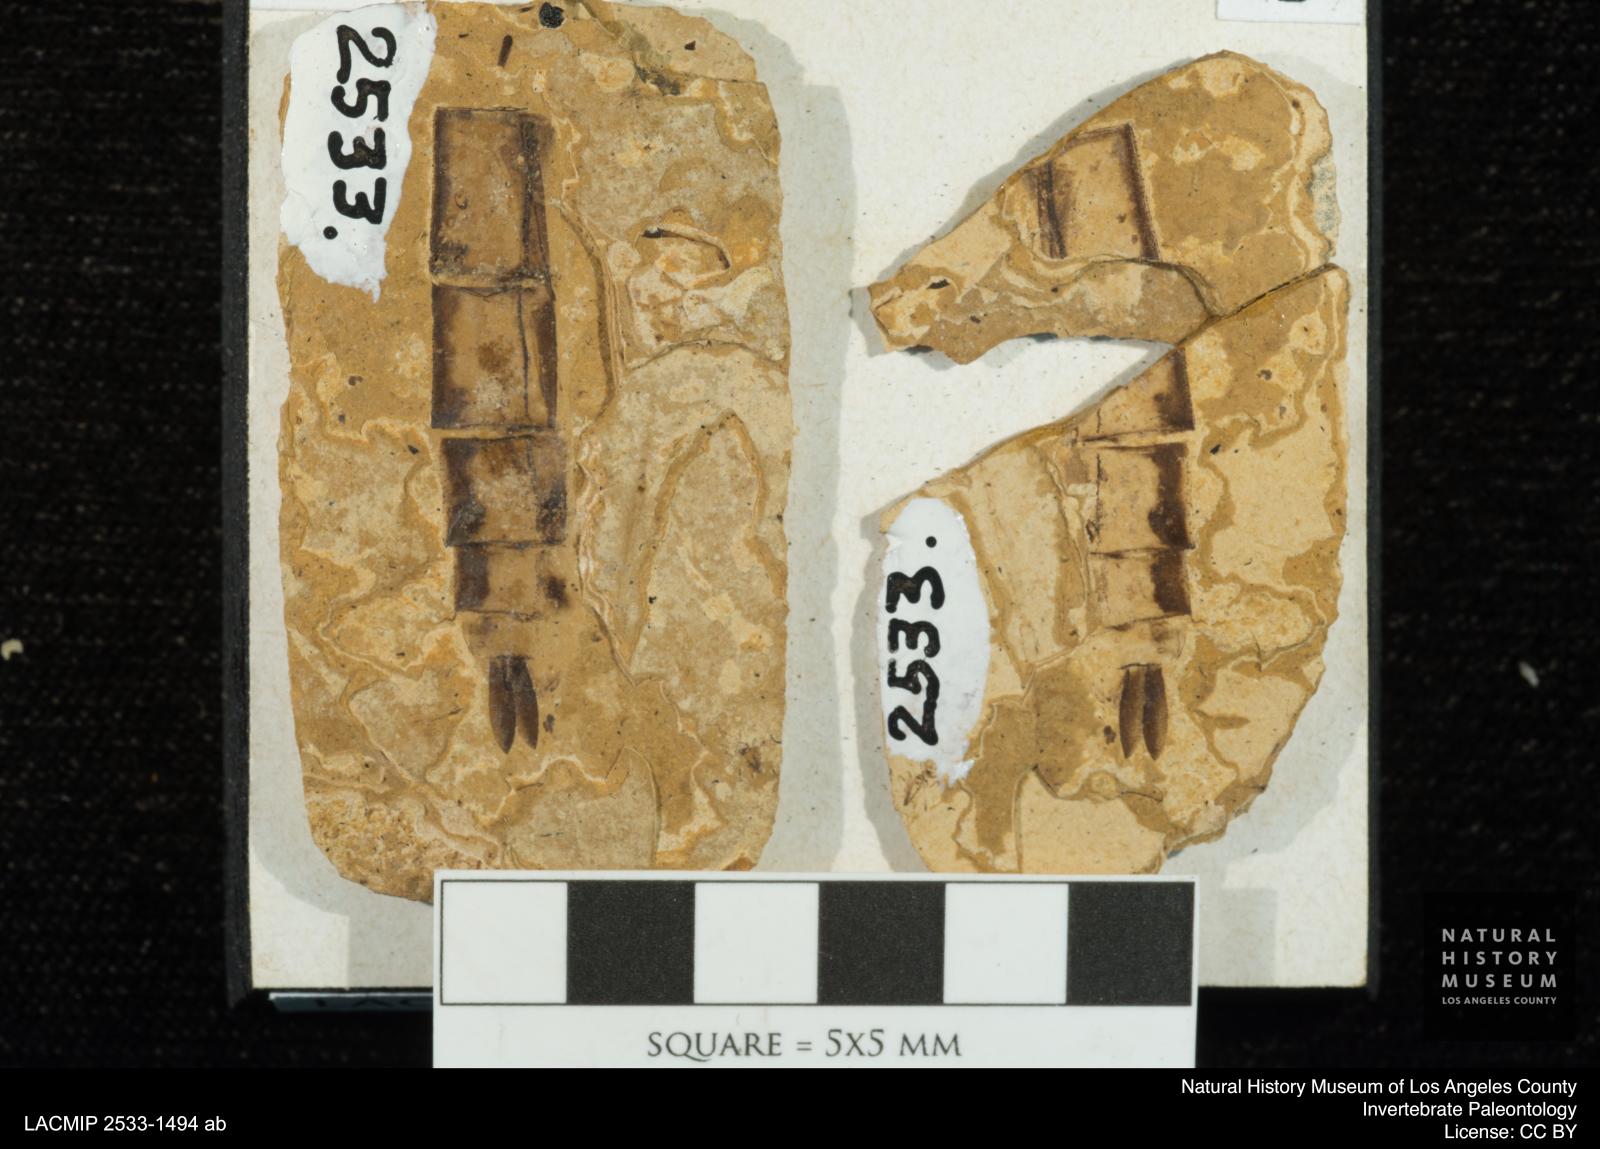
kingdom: Animalia
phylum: Arthropoda
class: Insecta
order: Odonata
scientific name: Odonata
